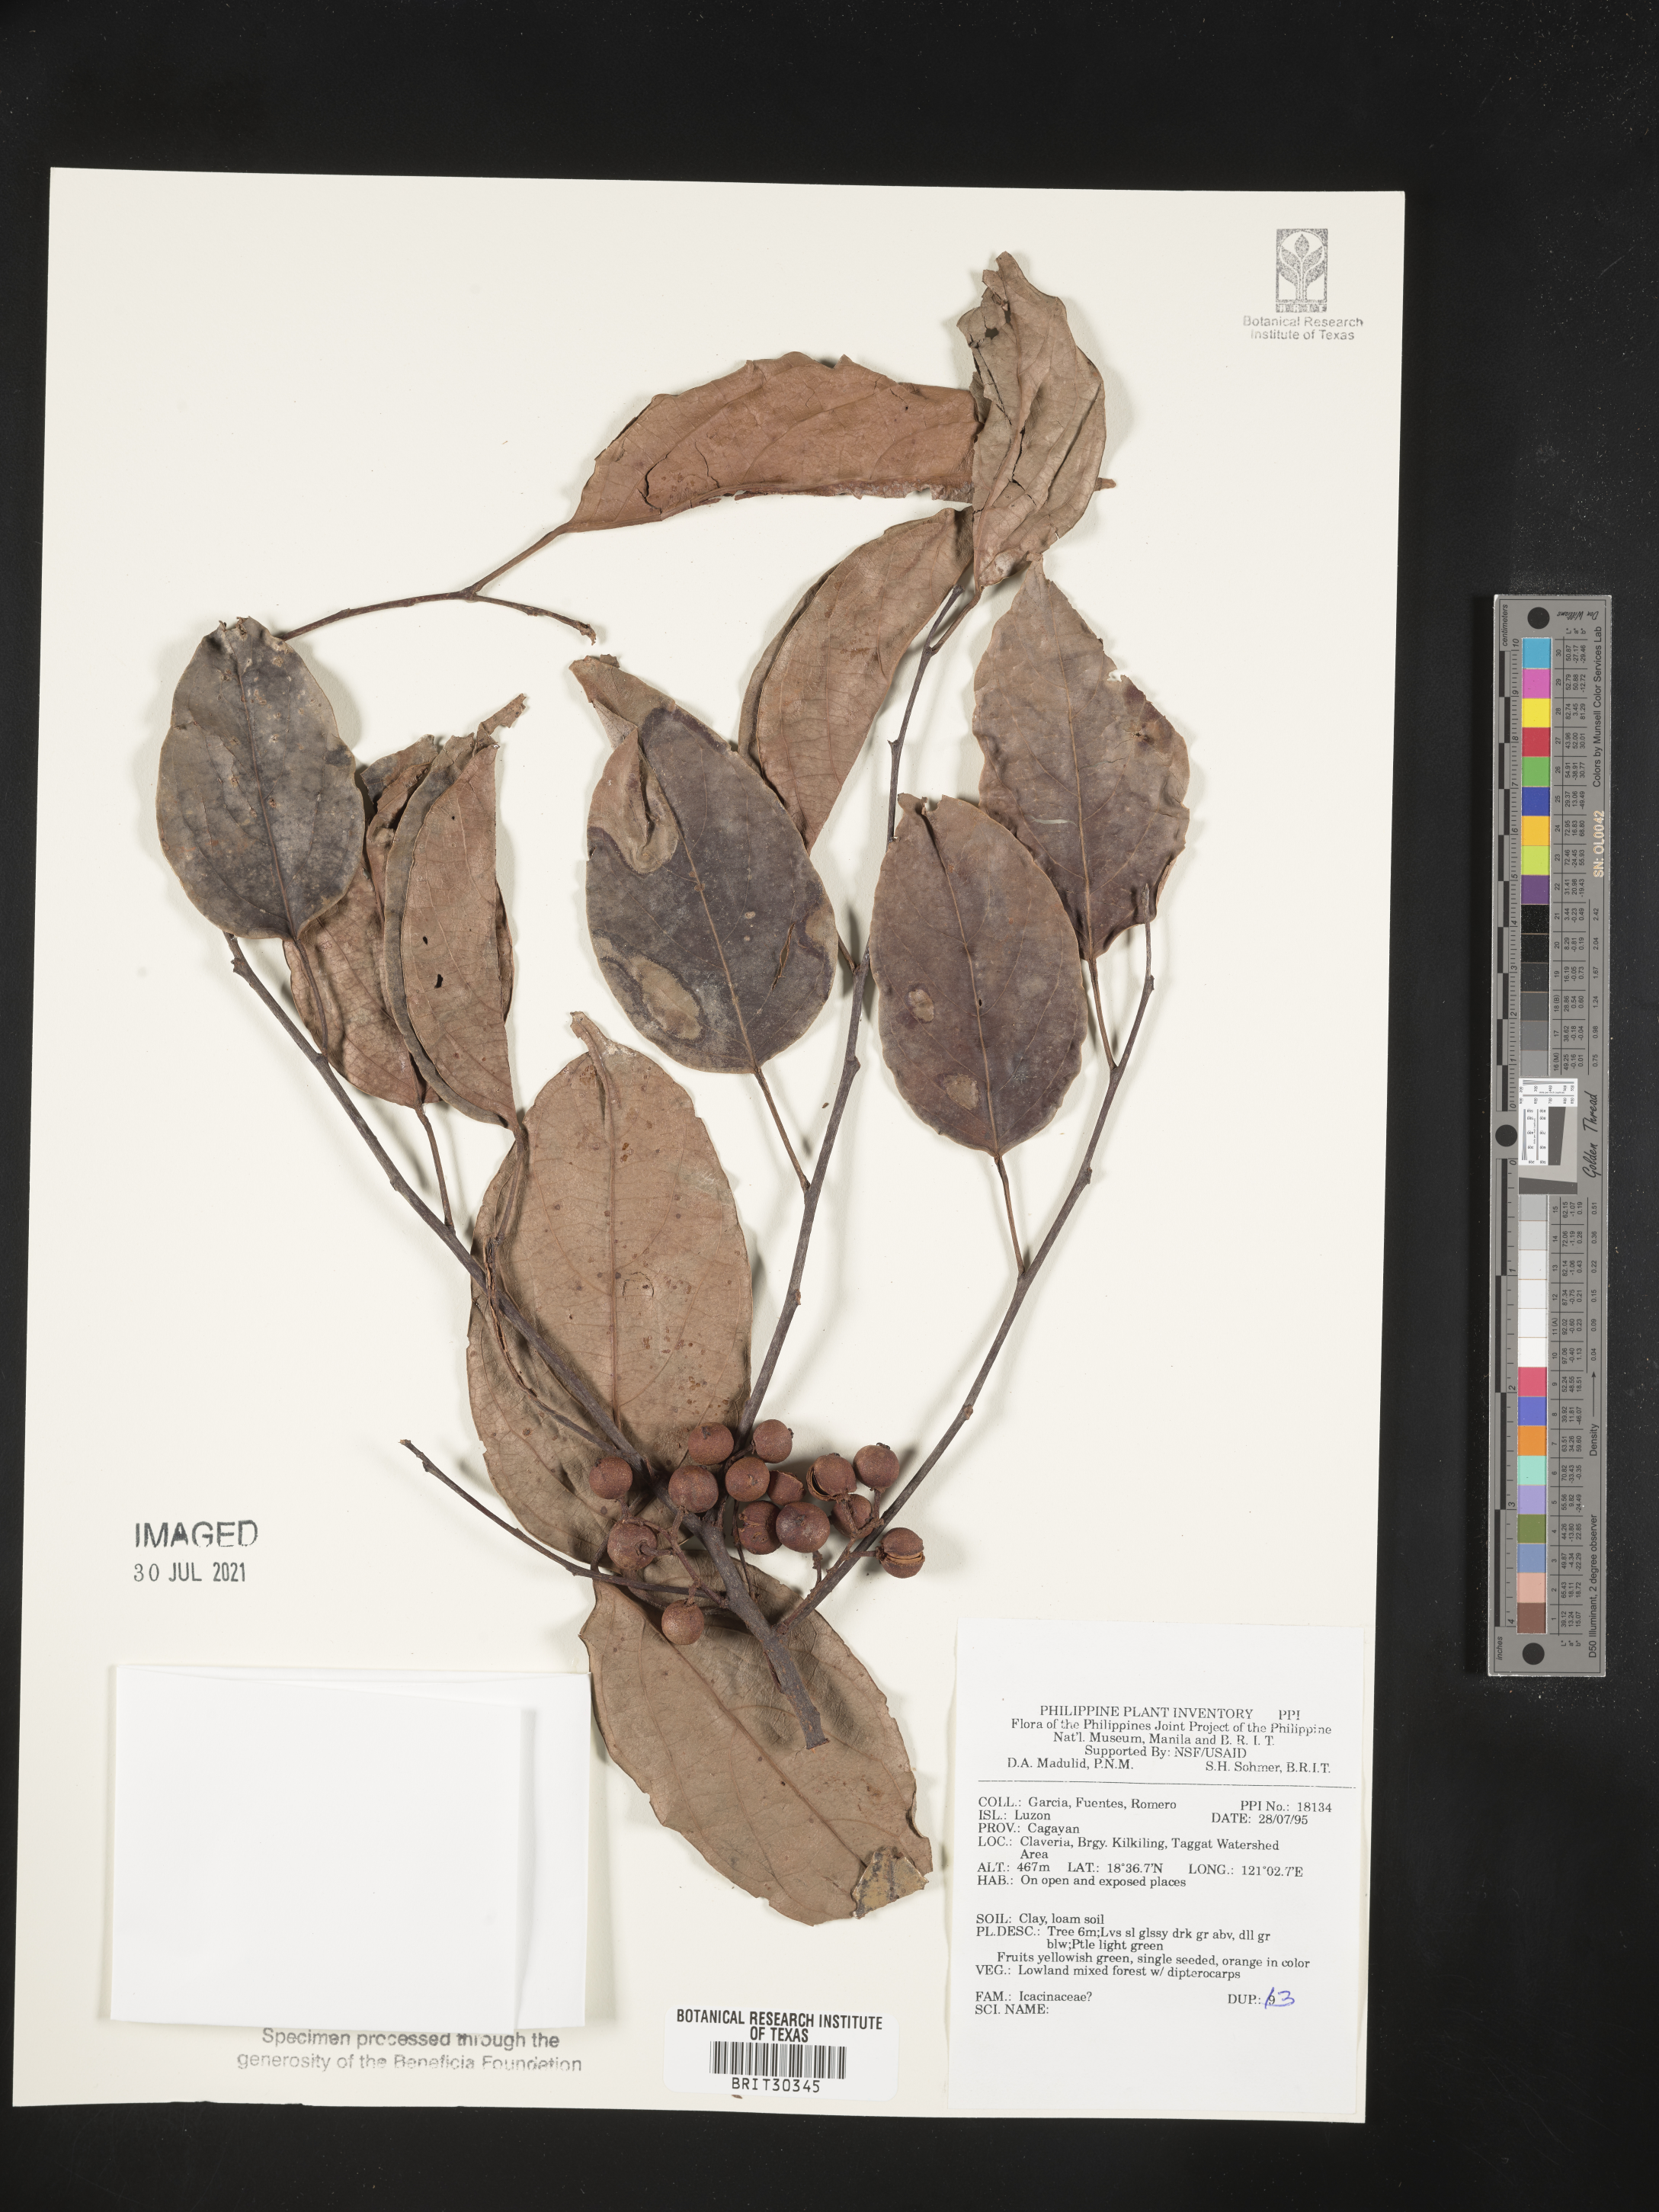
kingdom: Plantae
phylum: Tracheophyta
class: Magnoliopsida
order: Icacinales
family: Icacinaceae
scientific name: Icacinaceae
